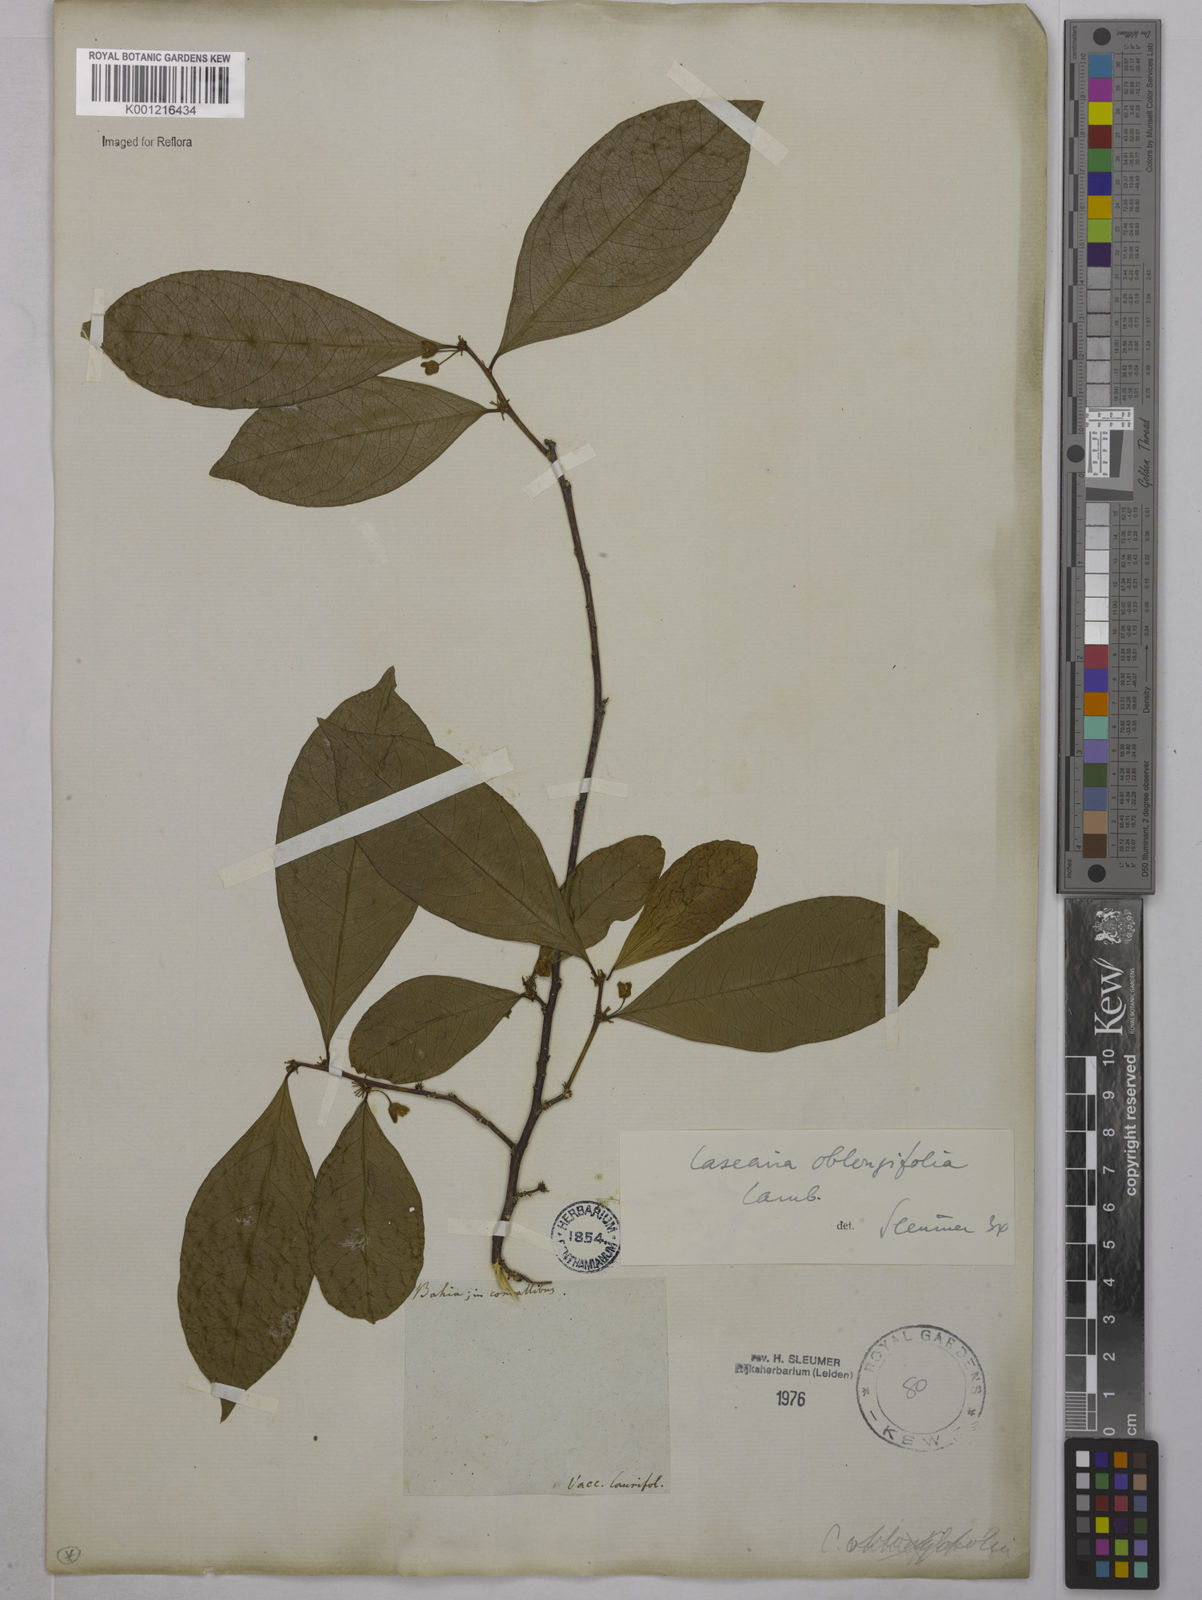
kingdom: Plantae
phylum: Tracheophyta
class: Magnoliopsida
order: Malpighiales
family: Salicaceae
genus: Casearia
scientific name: Casearia oblongifolia
